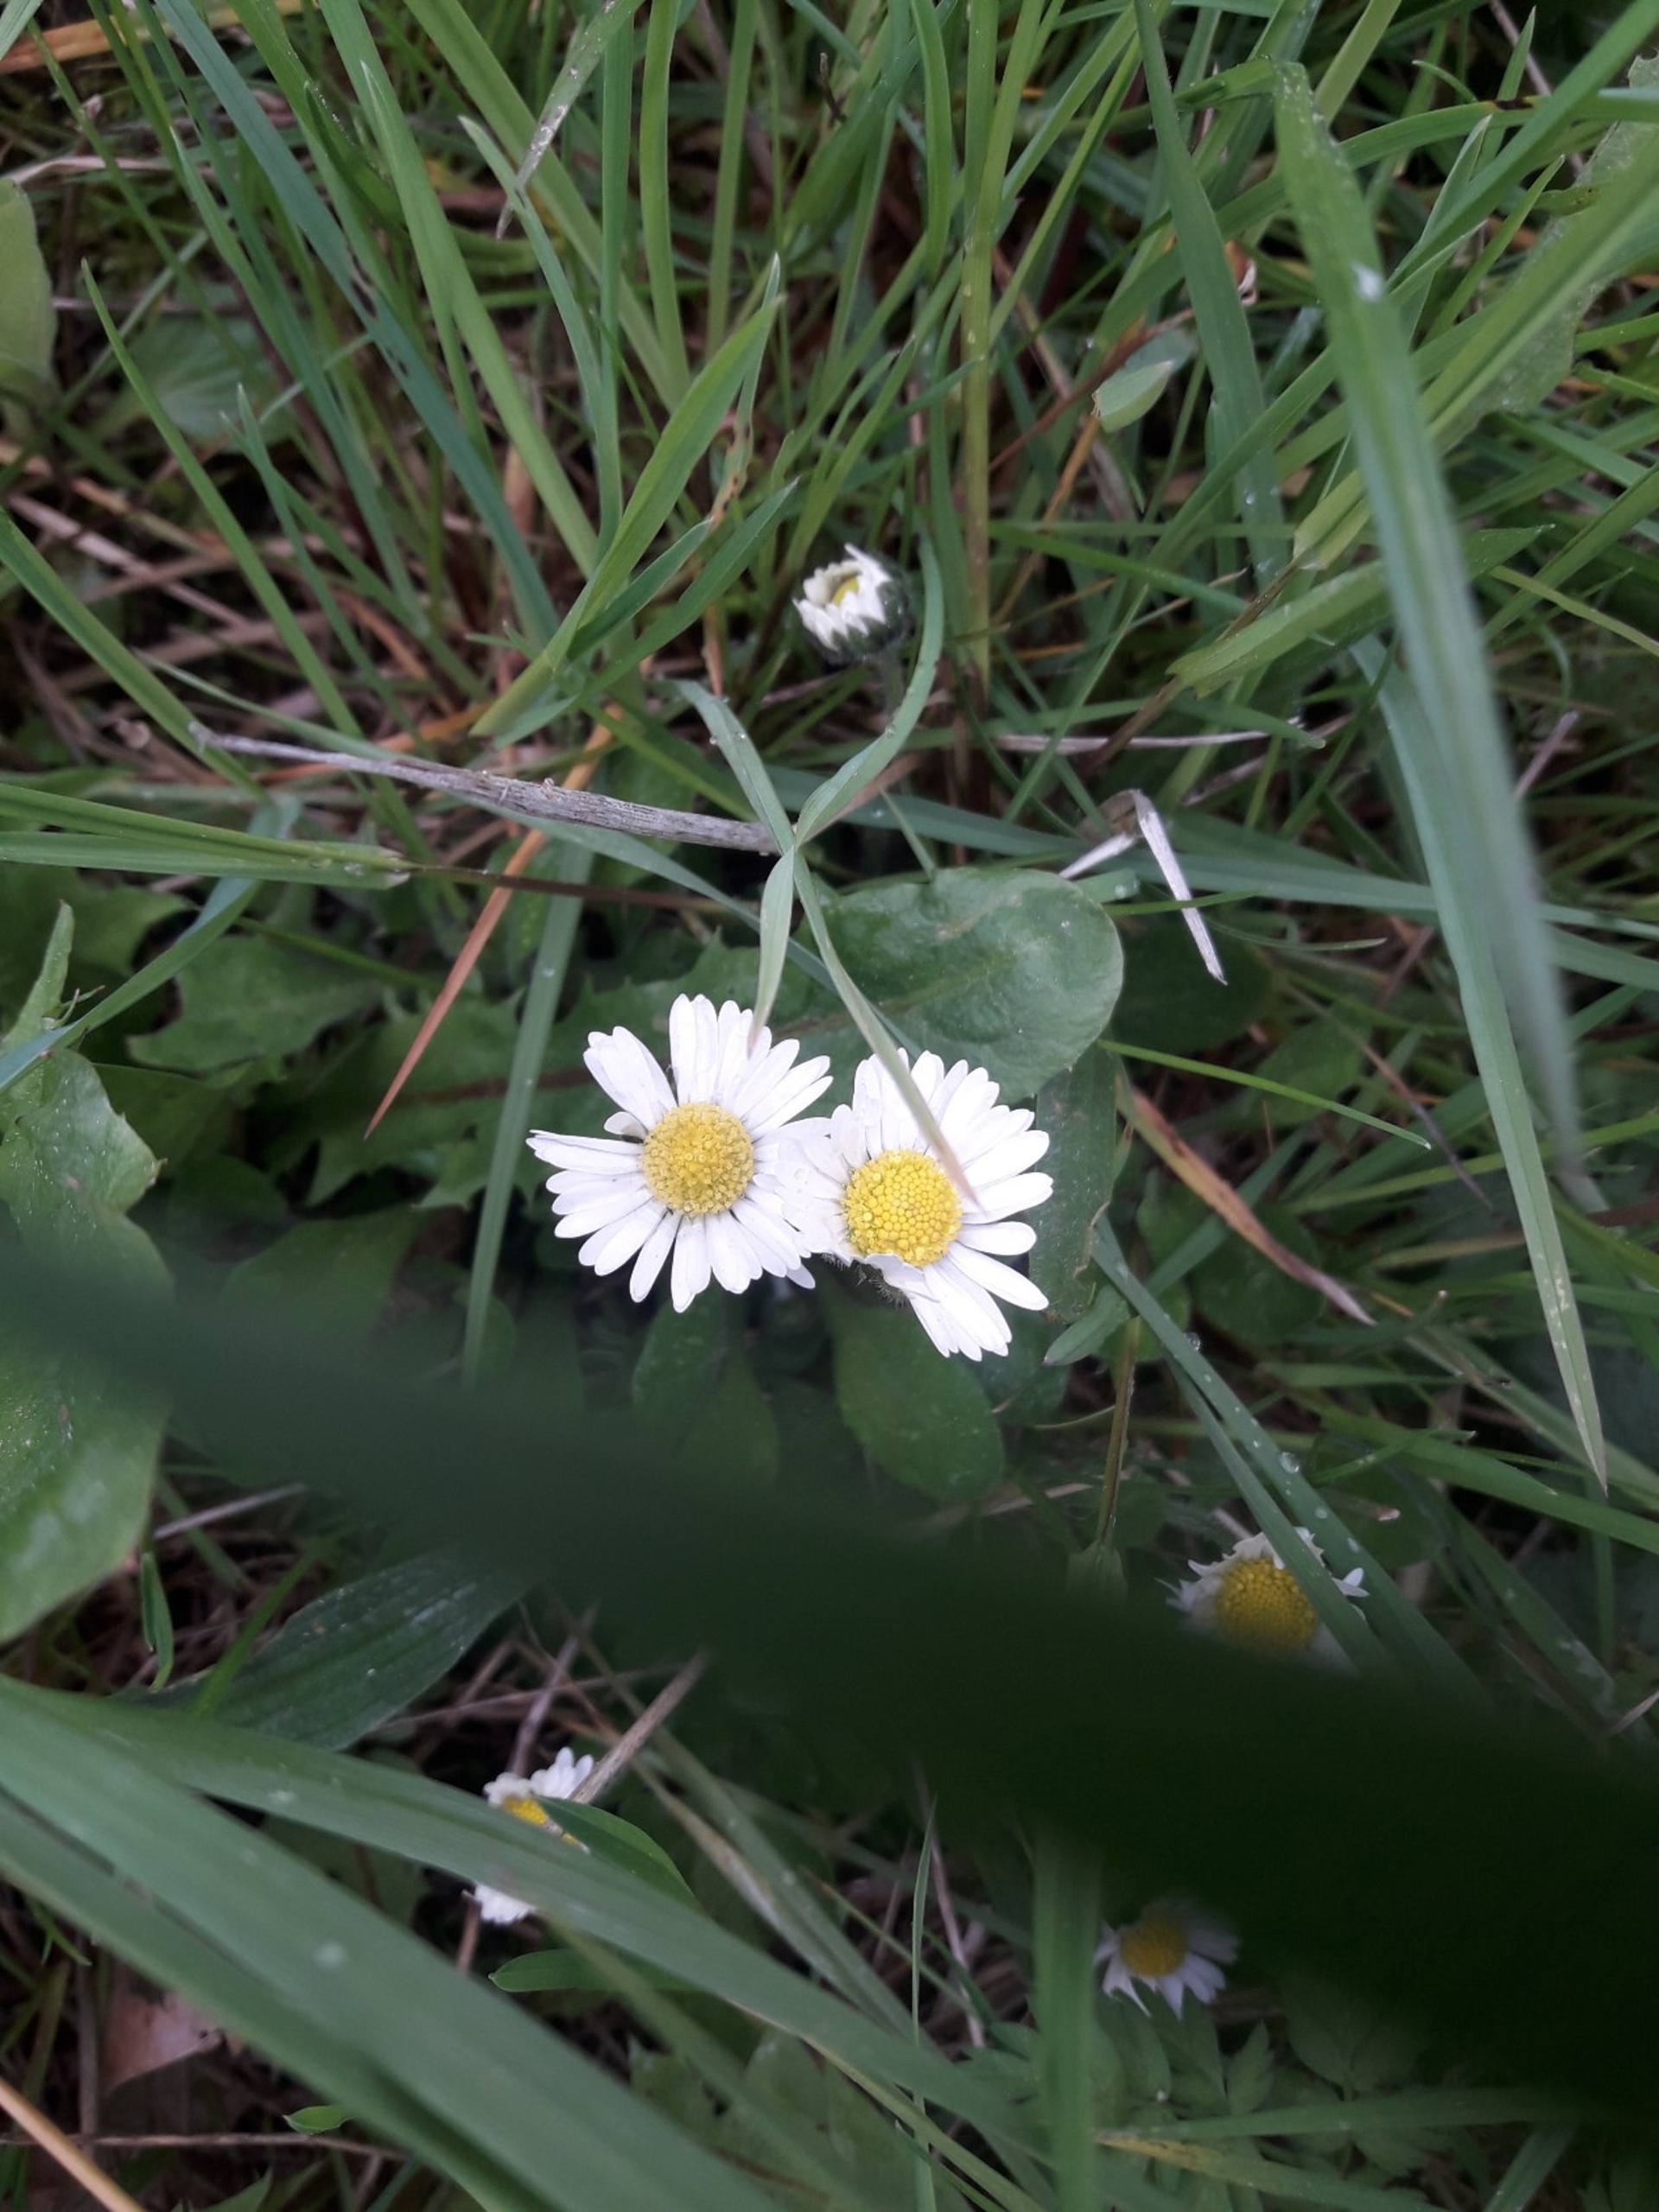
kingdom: Plantae
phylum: Tracheophyta
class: Magnoliopsida
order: Asterales
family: Asteraceae
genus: Bellis
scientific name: Bellis perennis
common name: Tusindfryd
